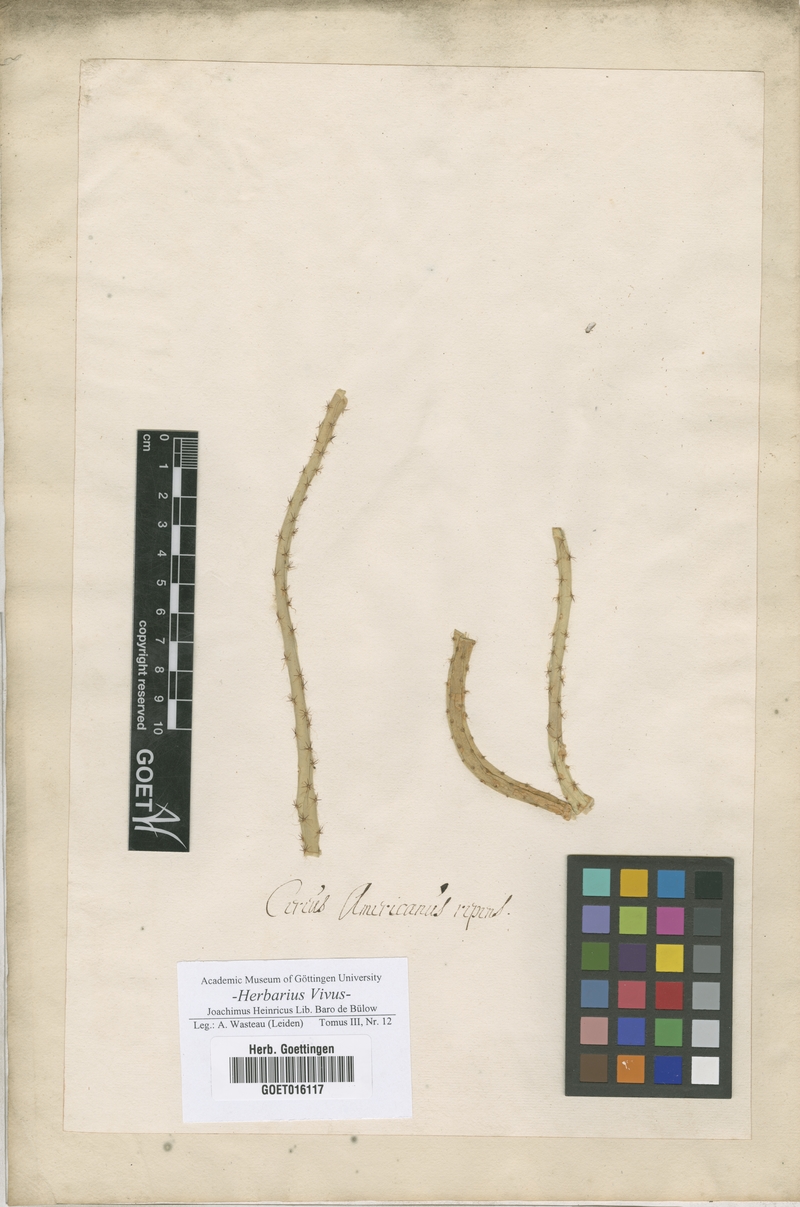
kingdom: Plantae
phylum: Tracheophyta
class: Magnoliopsida
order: Caryophyllales
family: Cactaceae
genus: Cereus
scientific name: Cereus
